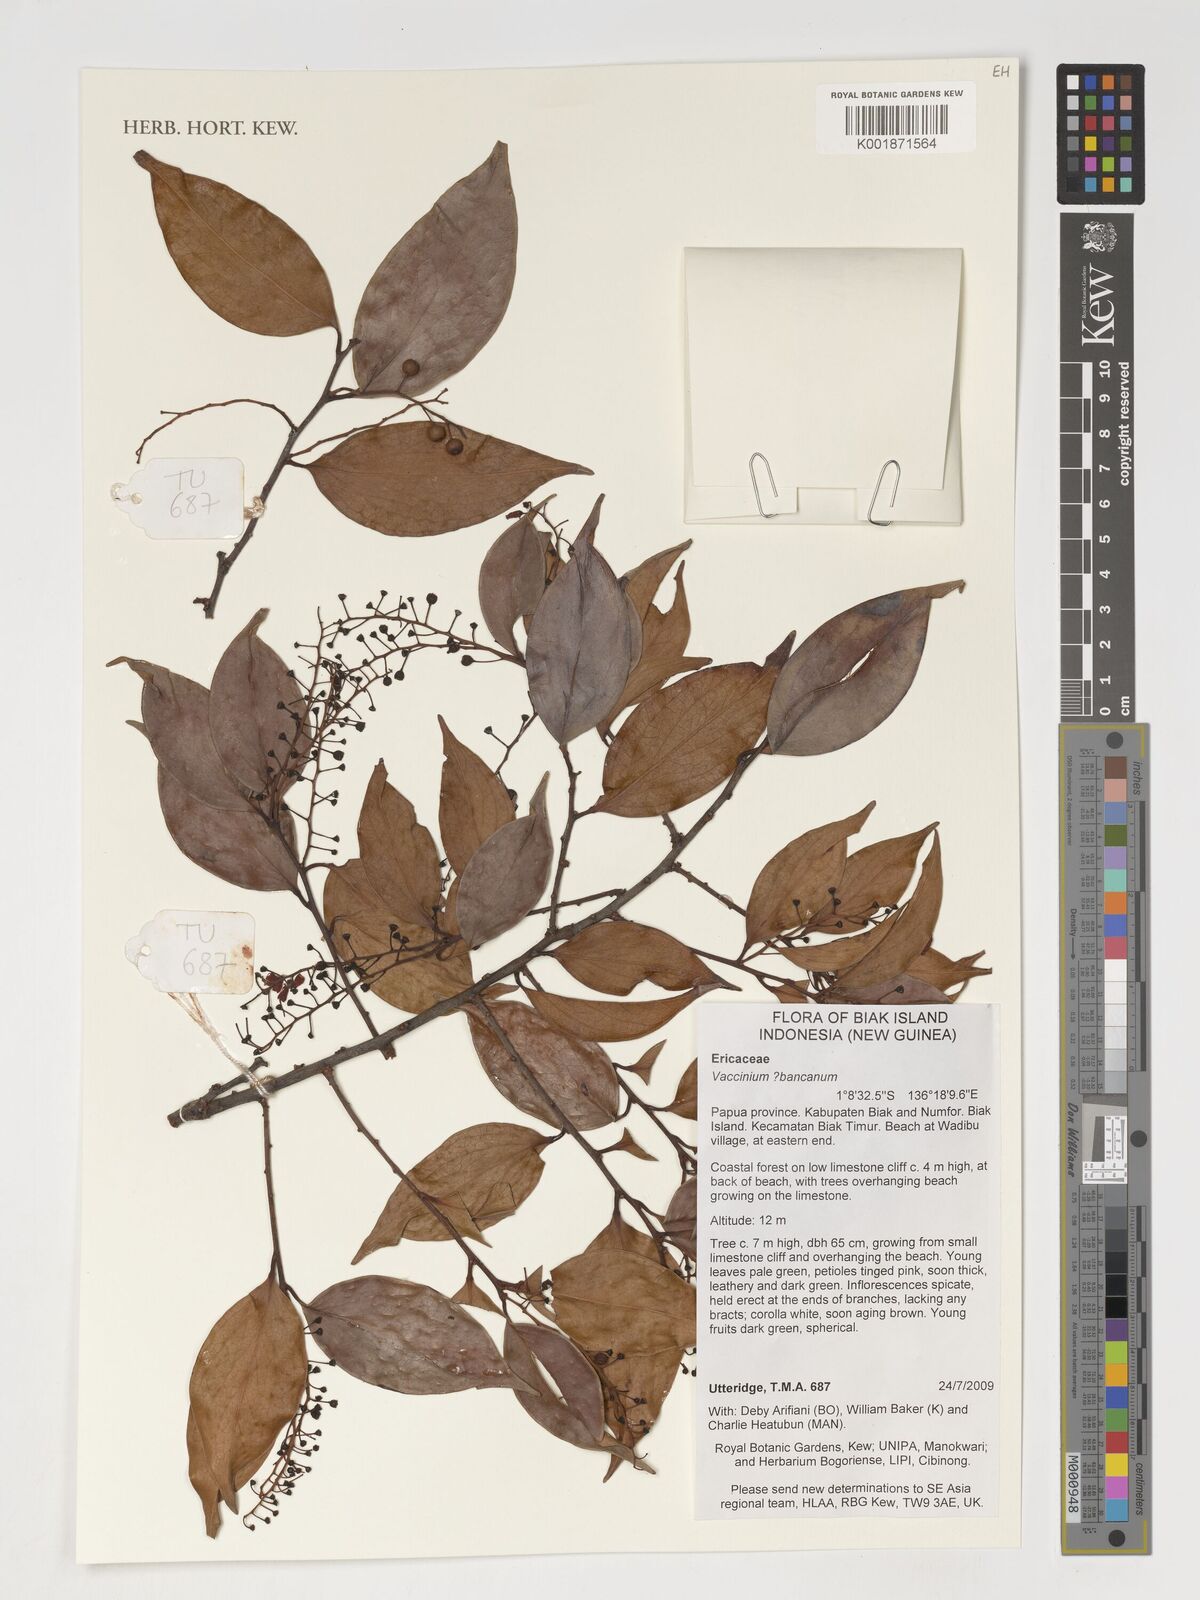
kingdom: Plantae
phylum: Tracheophyta
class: Magnoliopsida
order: Ericales
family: Ericaceae
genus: Vaccinium
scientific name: Vaccinium bancanum
